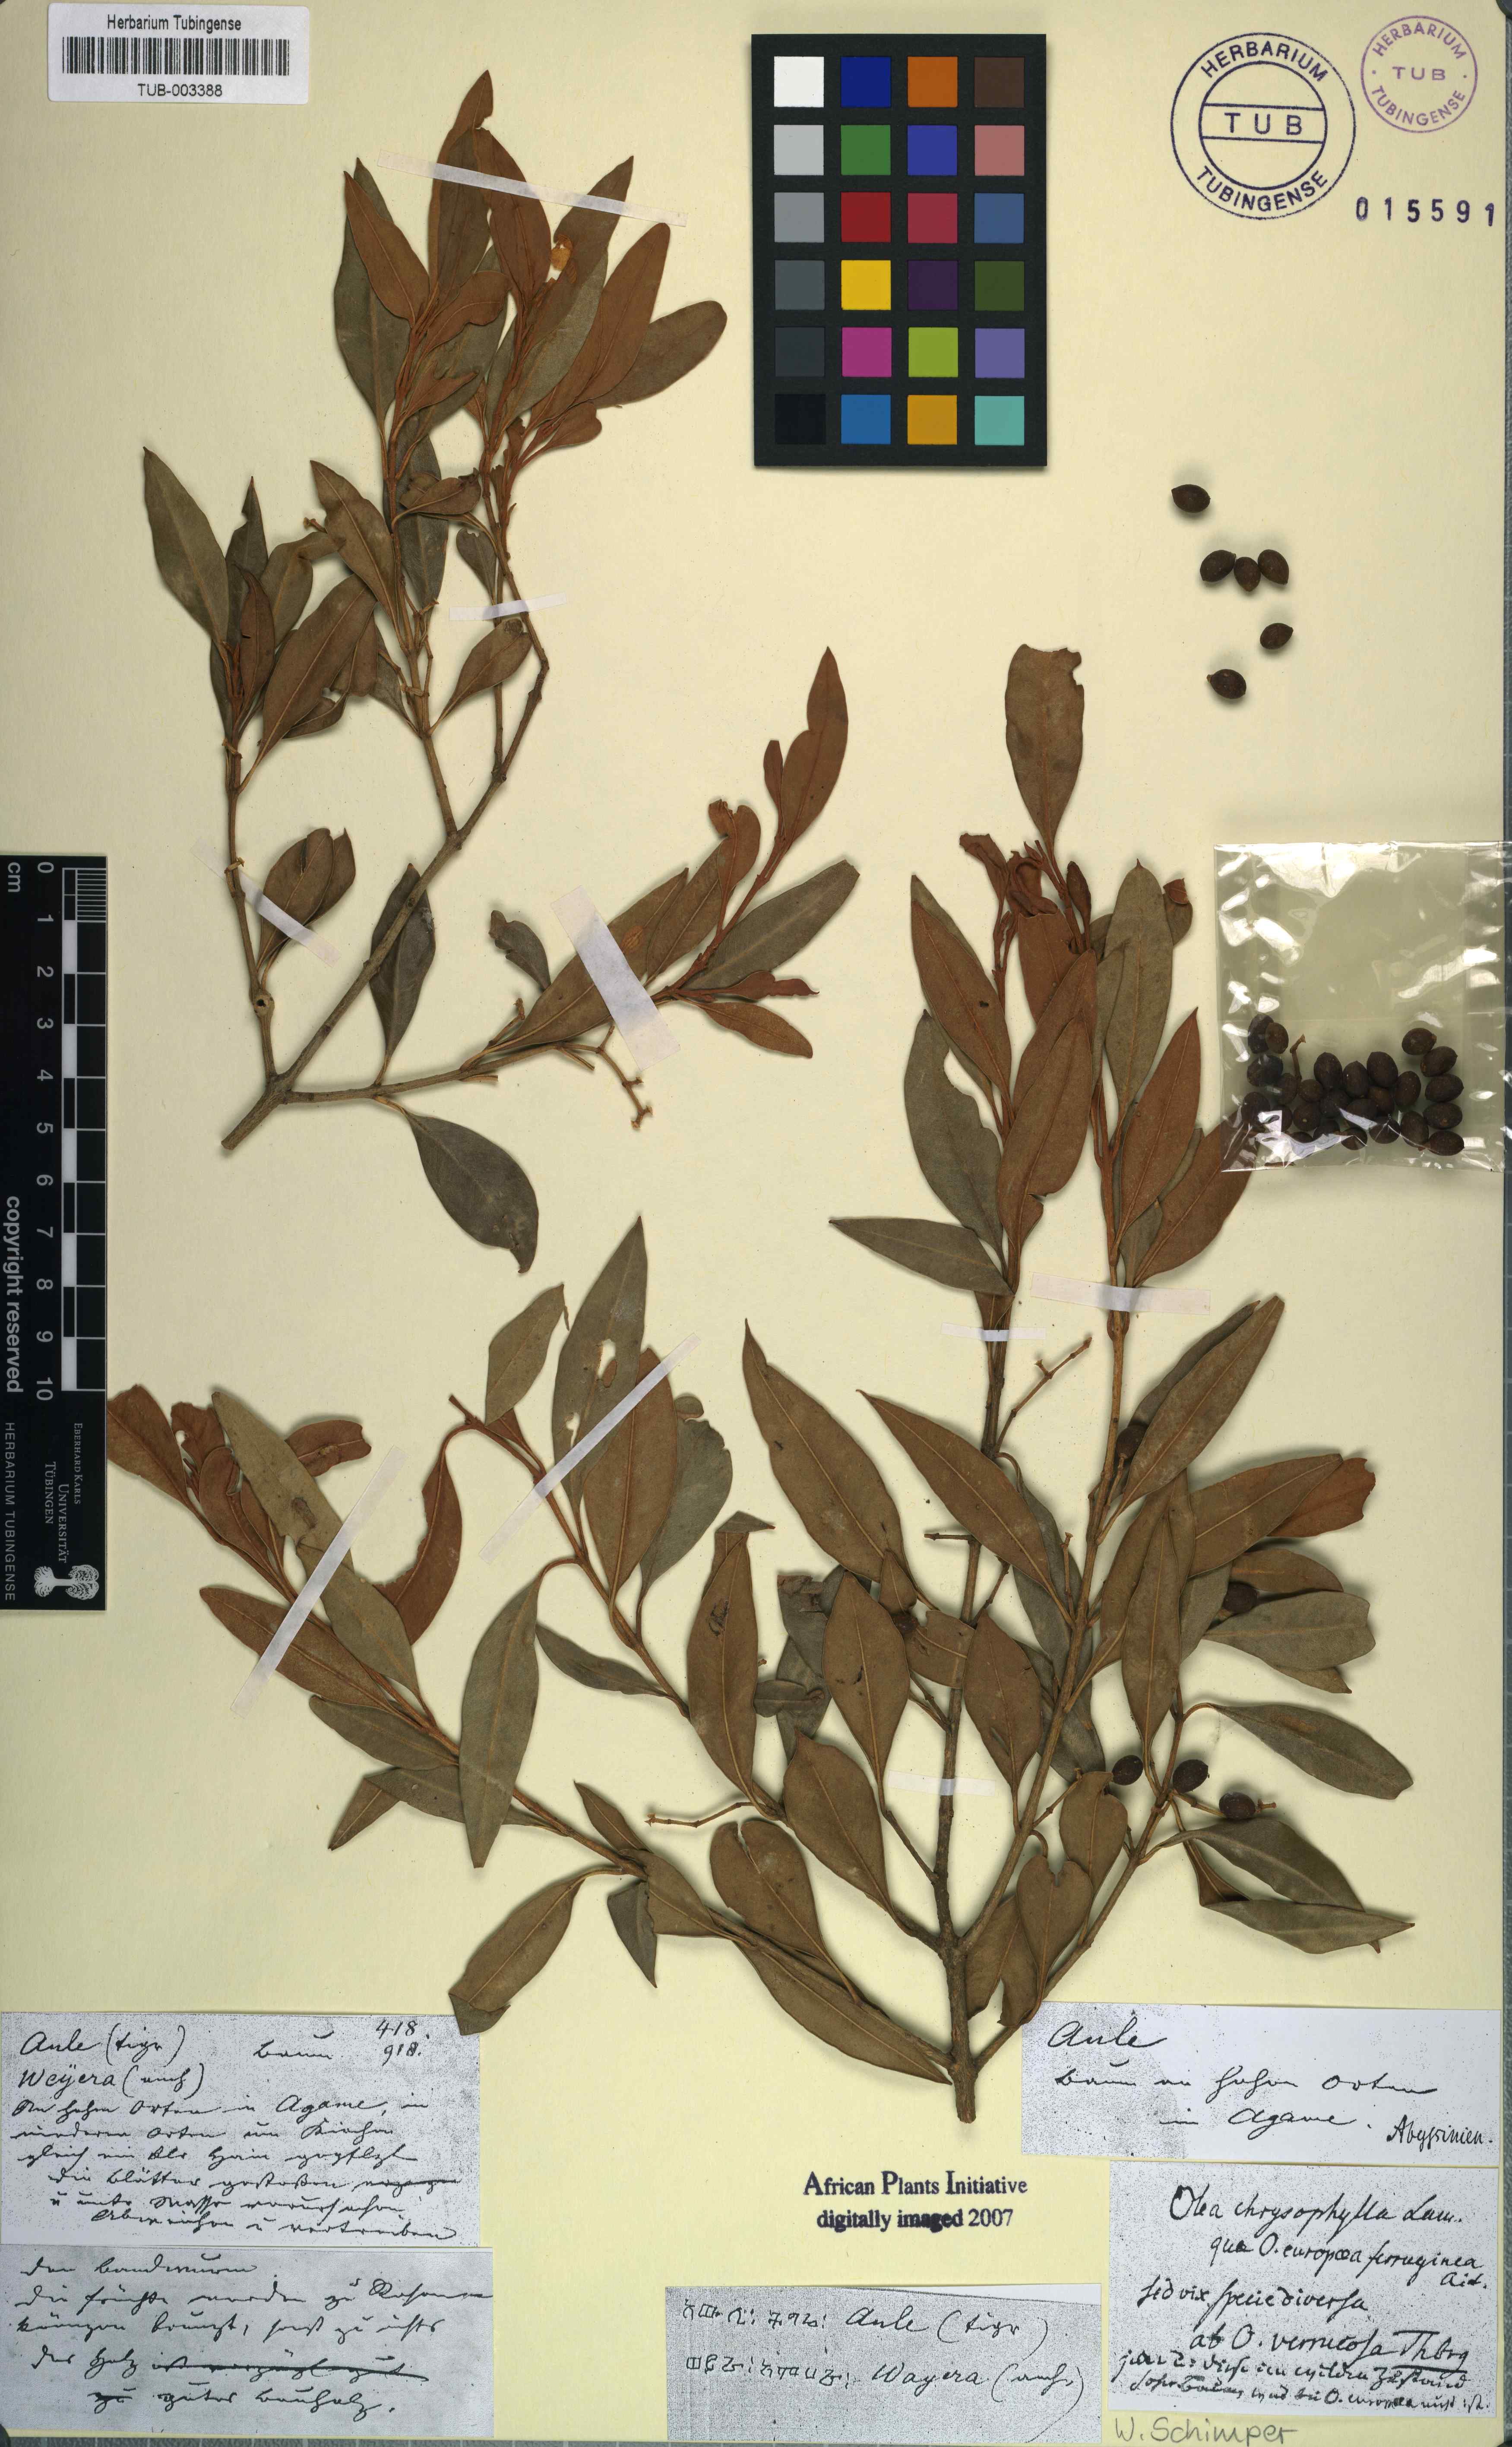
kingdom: Plantae
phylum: Tracheophyta
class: Magnoliopsida
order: Lamiales
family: Oleaceae
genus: Olea
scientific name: Olea europaea
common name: Olive
